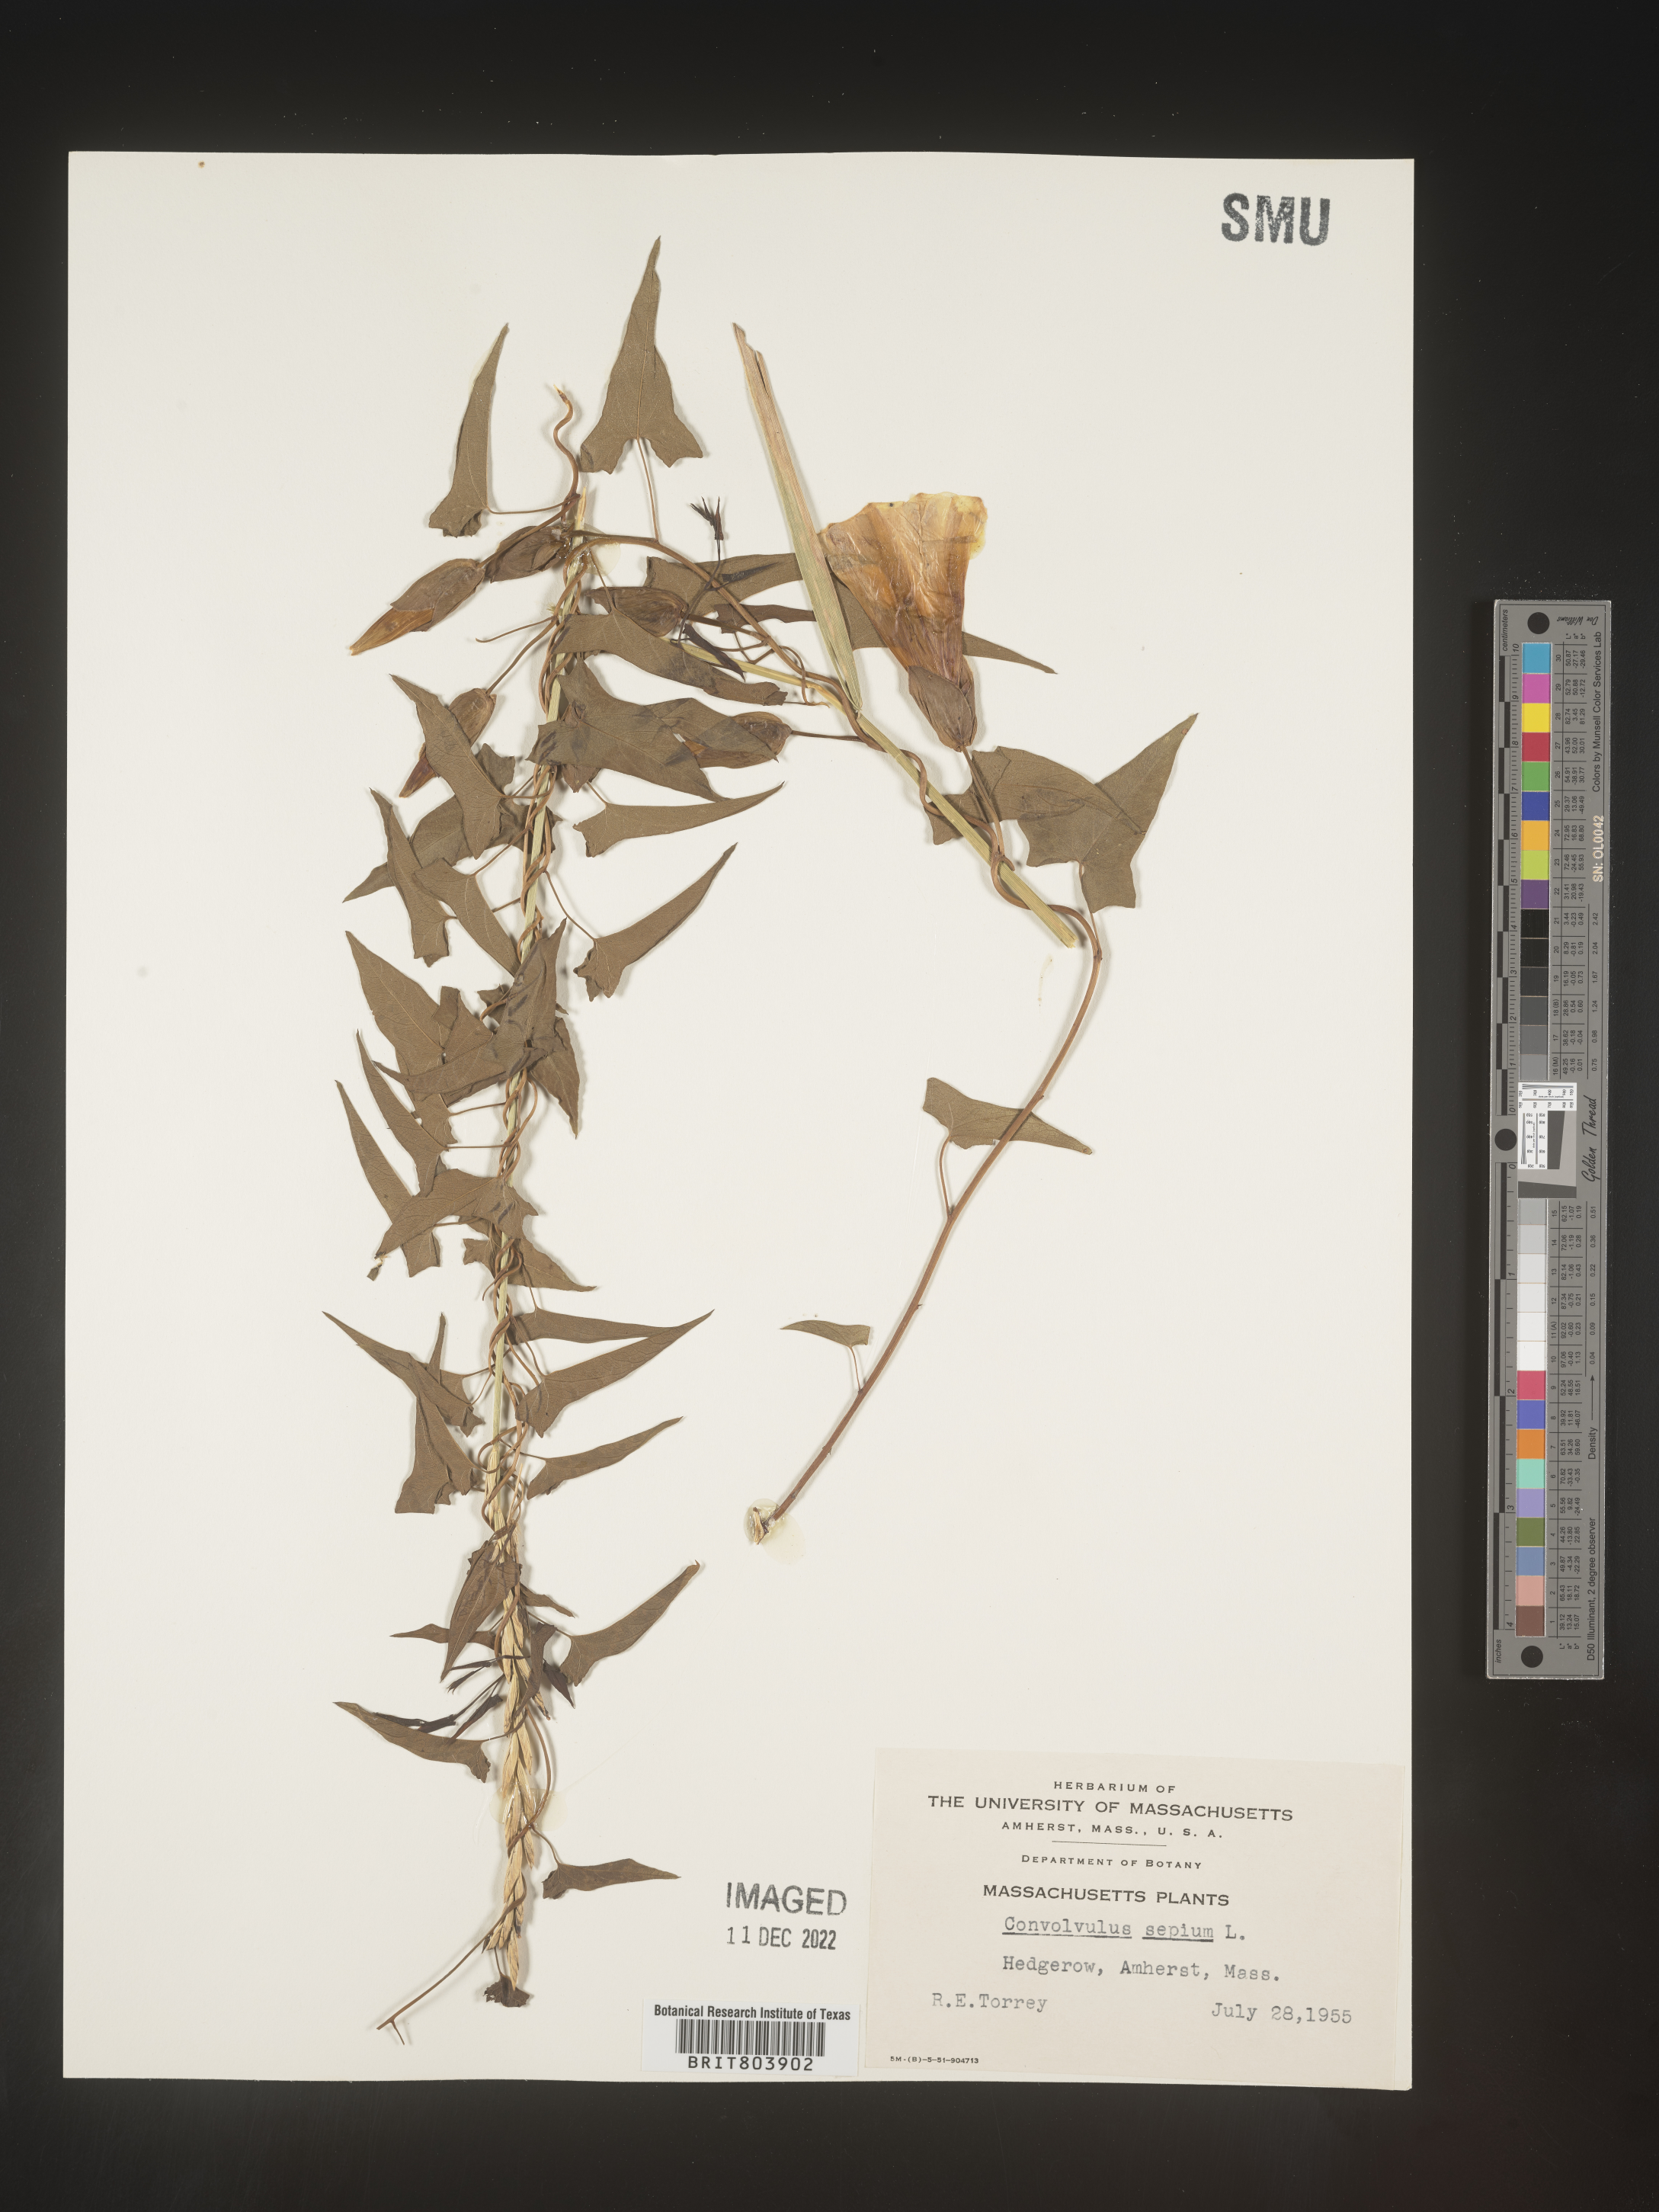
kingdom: Plantae
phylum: Tracheophyta
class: Magnoliopsida
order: Solanales
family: Convolvulaceae
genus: Calystegia
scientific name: Calystegia sepium
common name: Hedge bindweed
